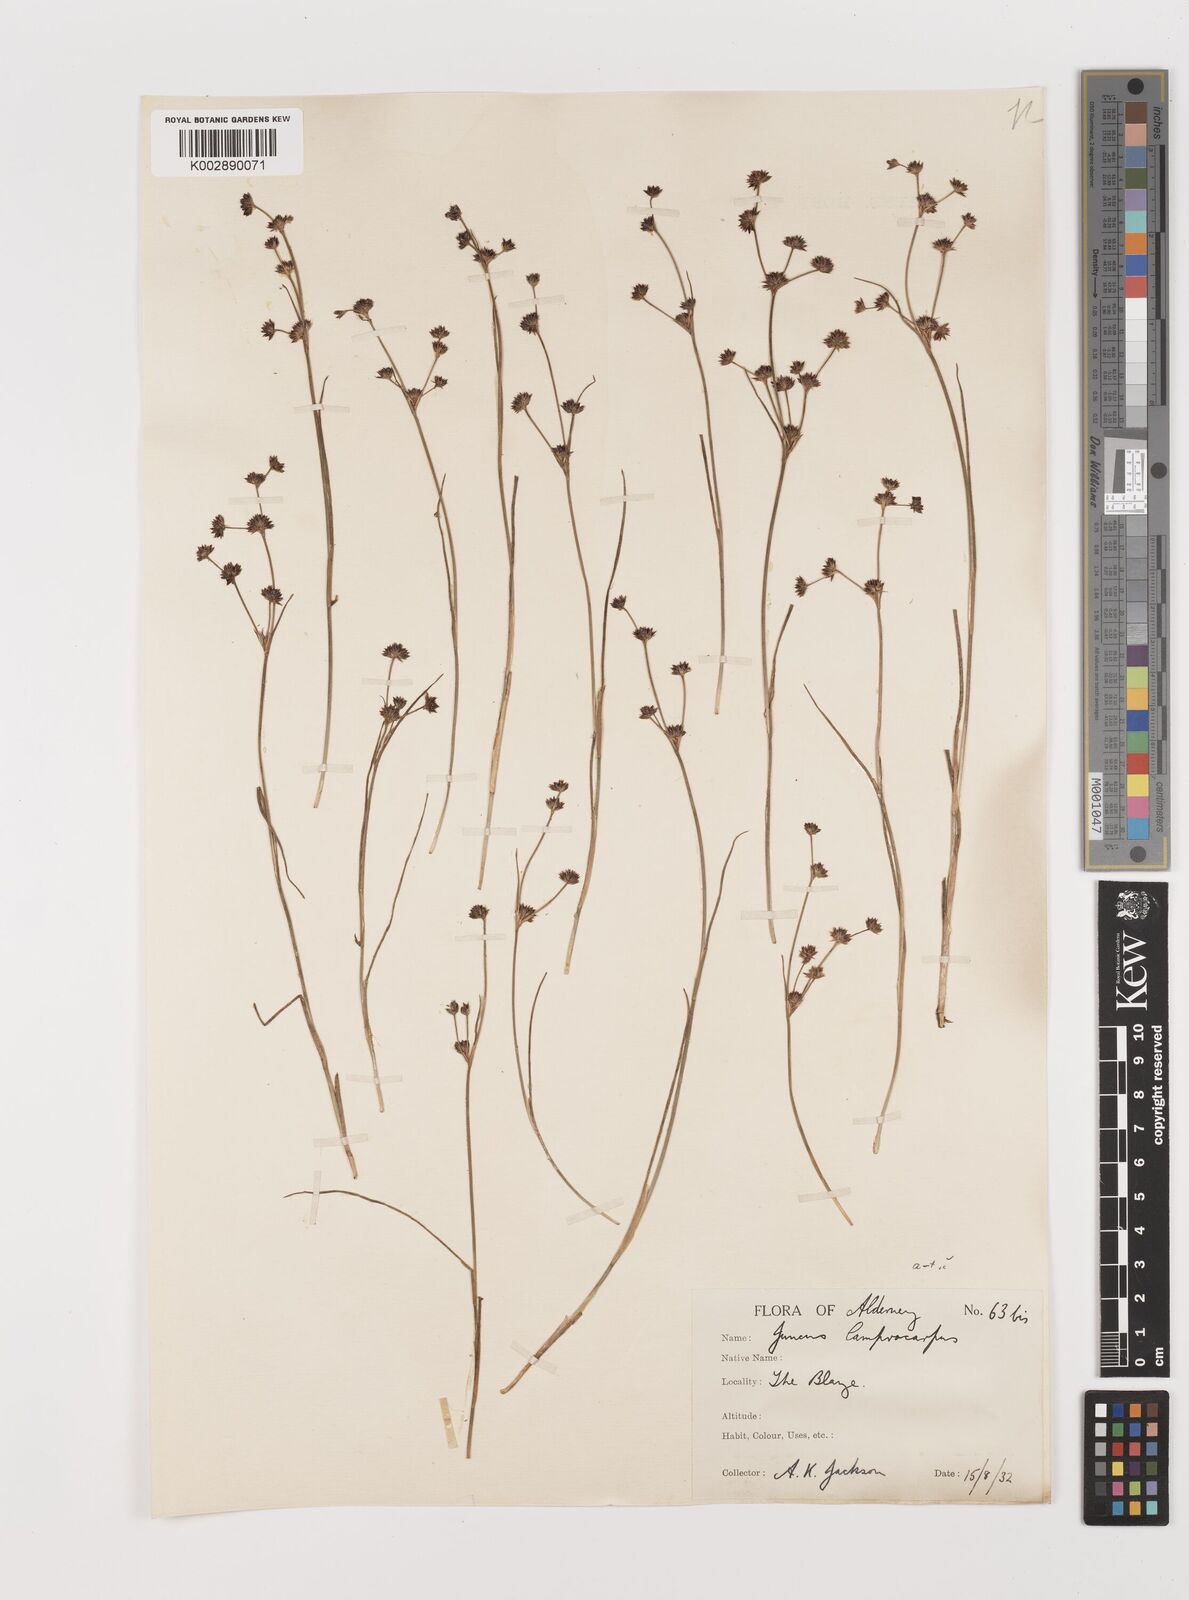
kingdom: Plantae
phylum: Tracheophyta
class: Liliopsida
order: Poales
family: Juncaceae
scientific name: Juncaceae
